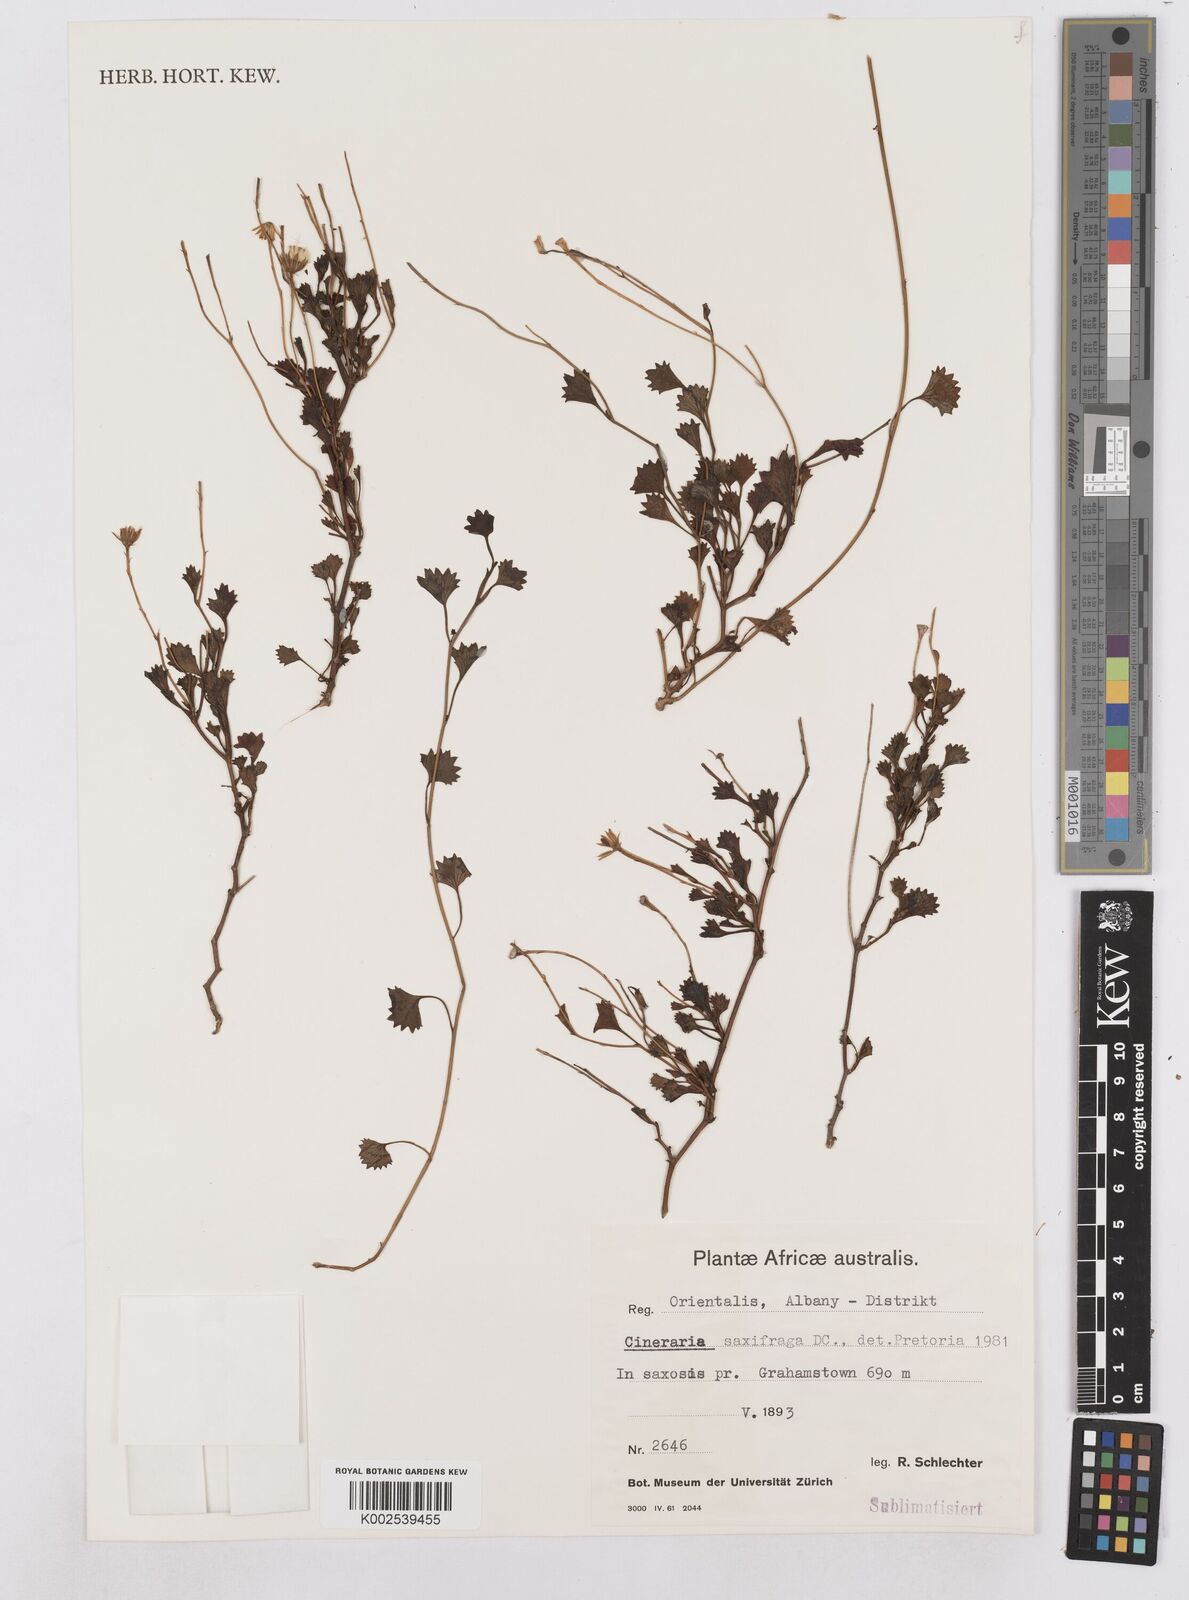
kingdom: Plantae
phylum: Tracheophyta
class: Magnoliopsida
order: Asterales
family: Asteraceae
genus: Cineraria
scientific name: Cineraria saxifraga
